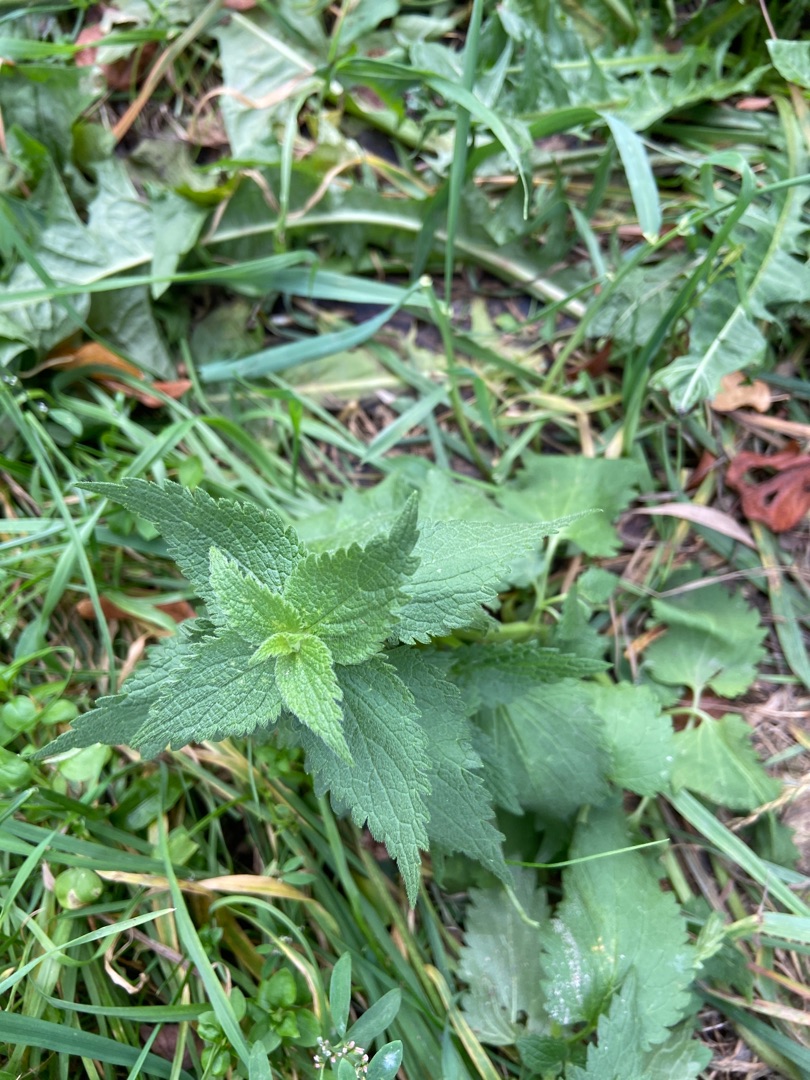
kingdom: Plantae
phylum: Tracheophyta
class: Magnoliopsida
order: Lamiales
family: Lamiaceae
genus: Lamium
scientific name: Lamium album
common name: Døvnælde
